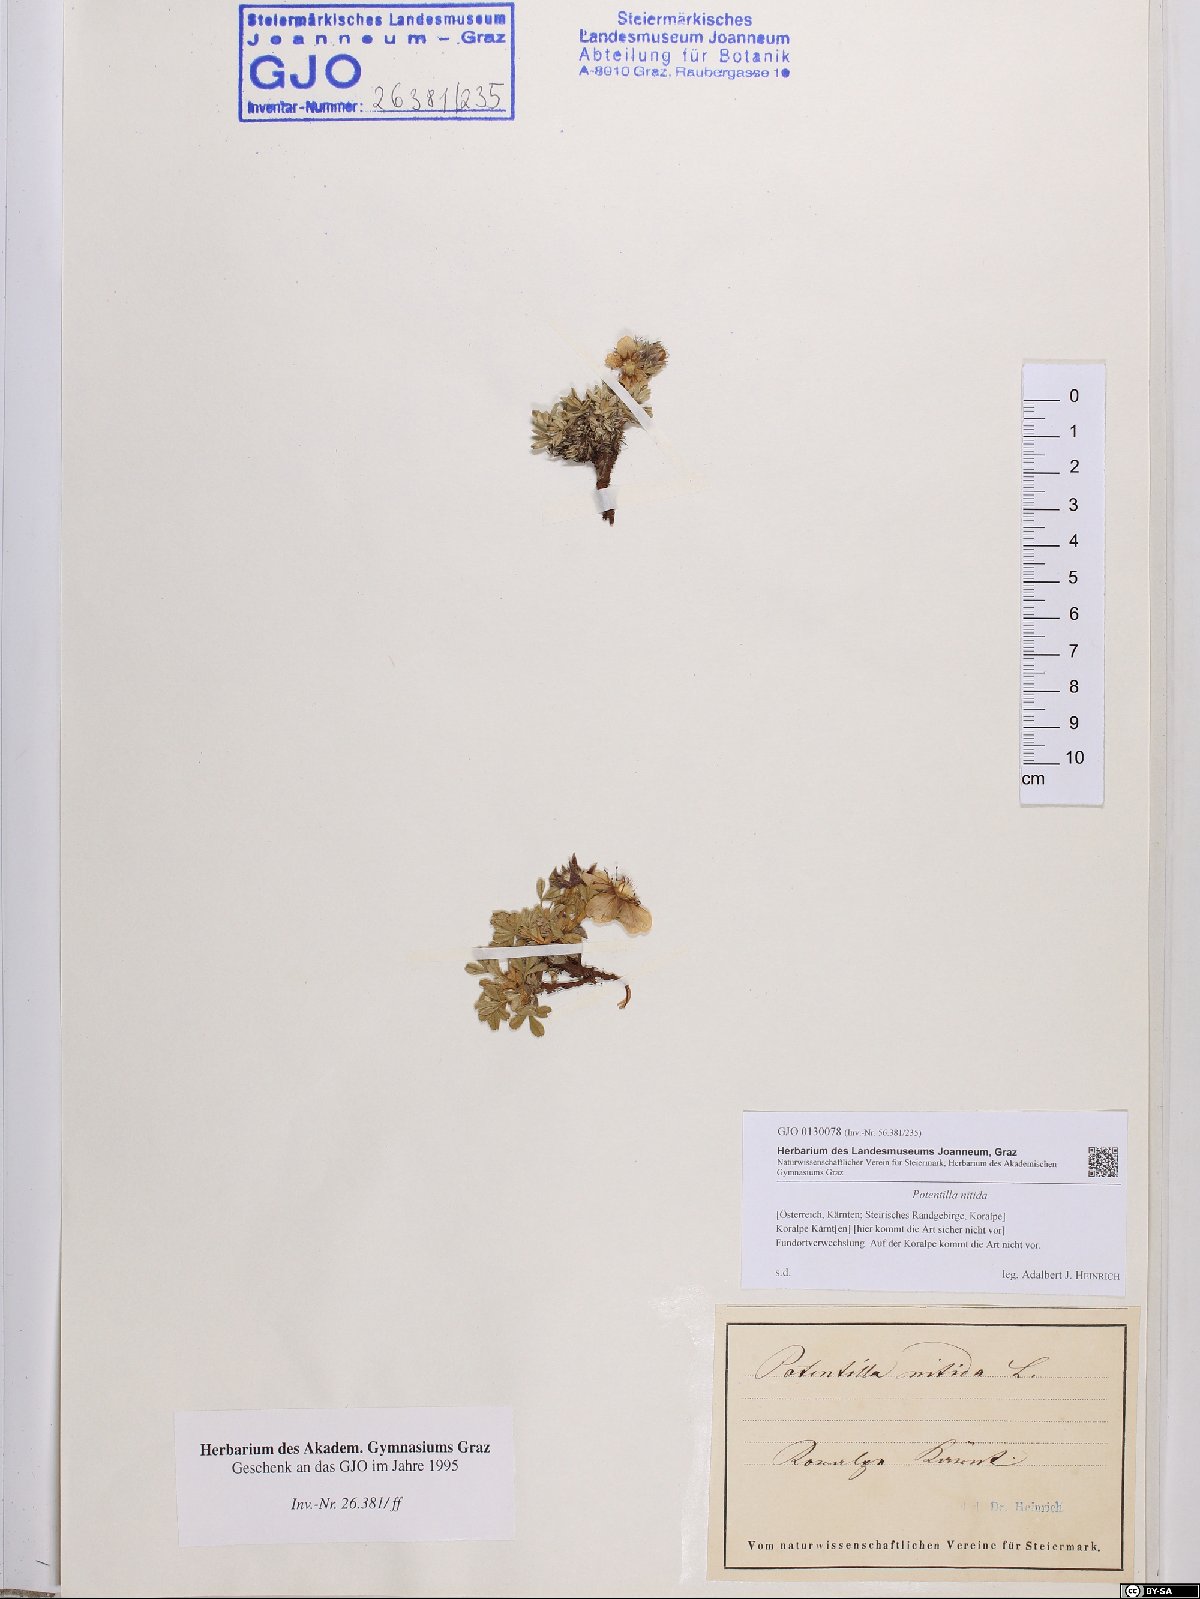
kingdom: Plantae
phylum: Tracheophyta
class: Magnoliopsida
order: Rosales
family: Rosaceae
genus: Potentilla
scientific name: Potentilla nitida
